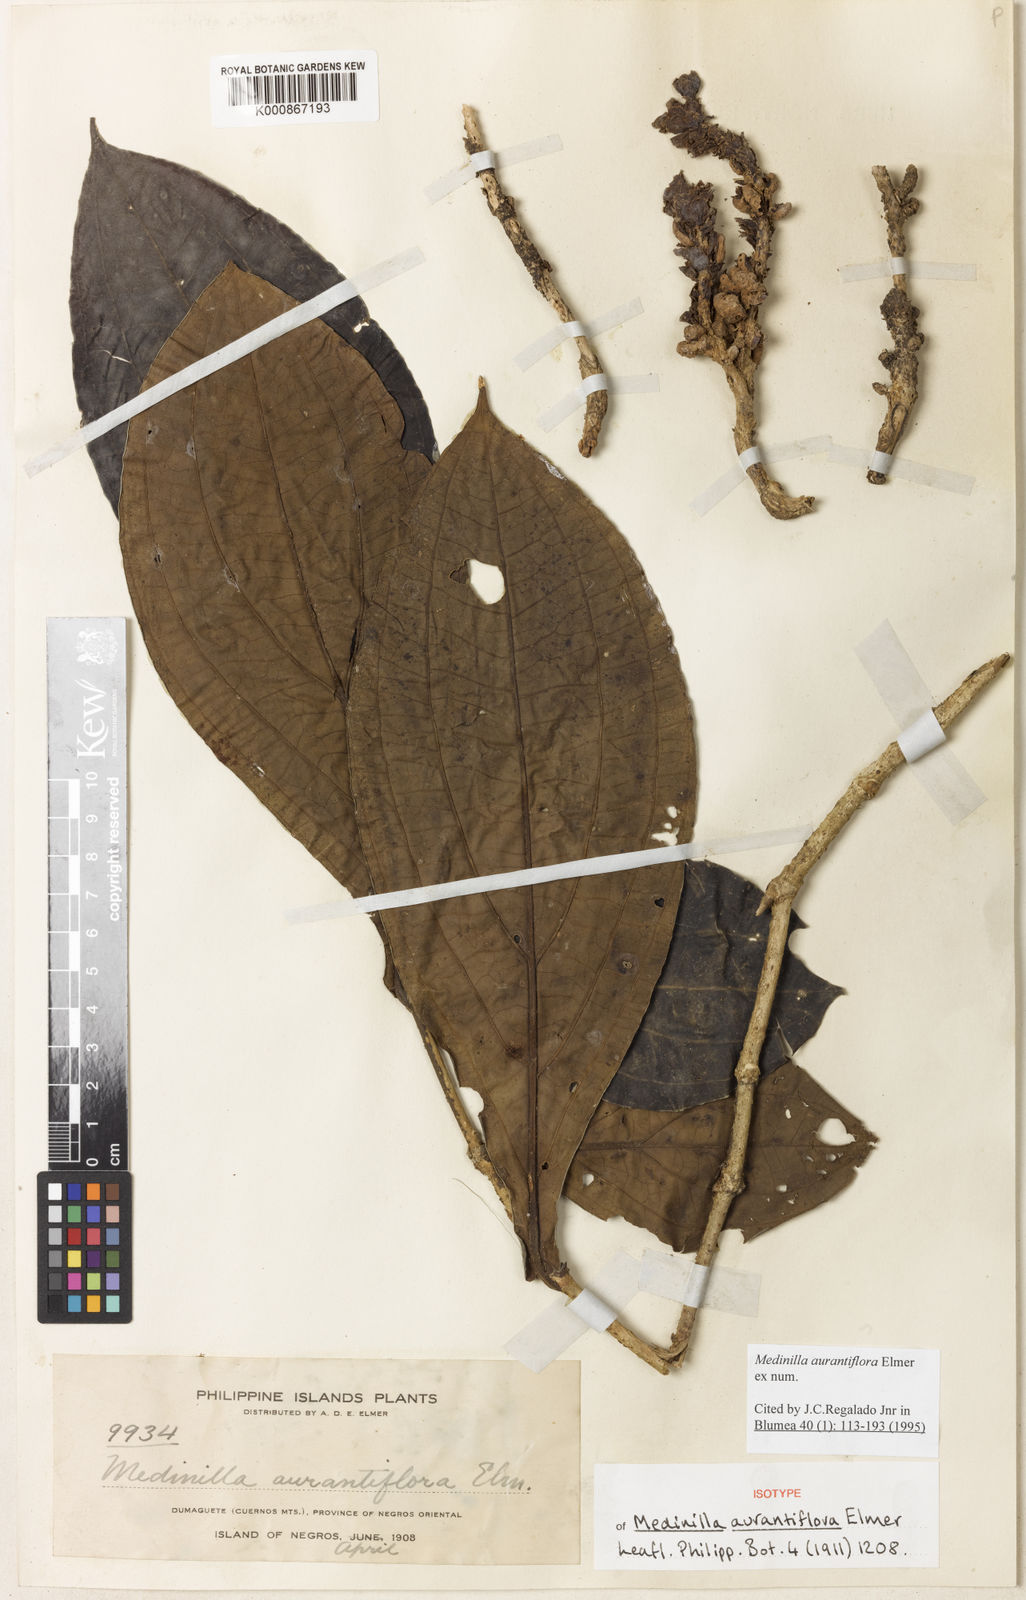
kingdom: Plantae
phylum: Tracheophyta
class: Magnoliopsida
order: Myrtales
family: Melastomataceae
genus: Medinilla
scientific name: Medinilla aurantiiflora
